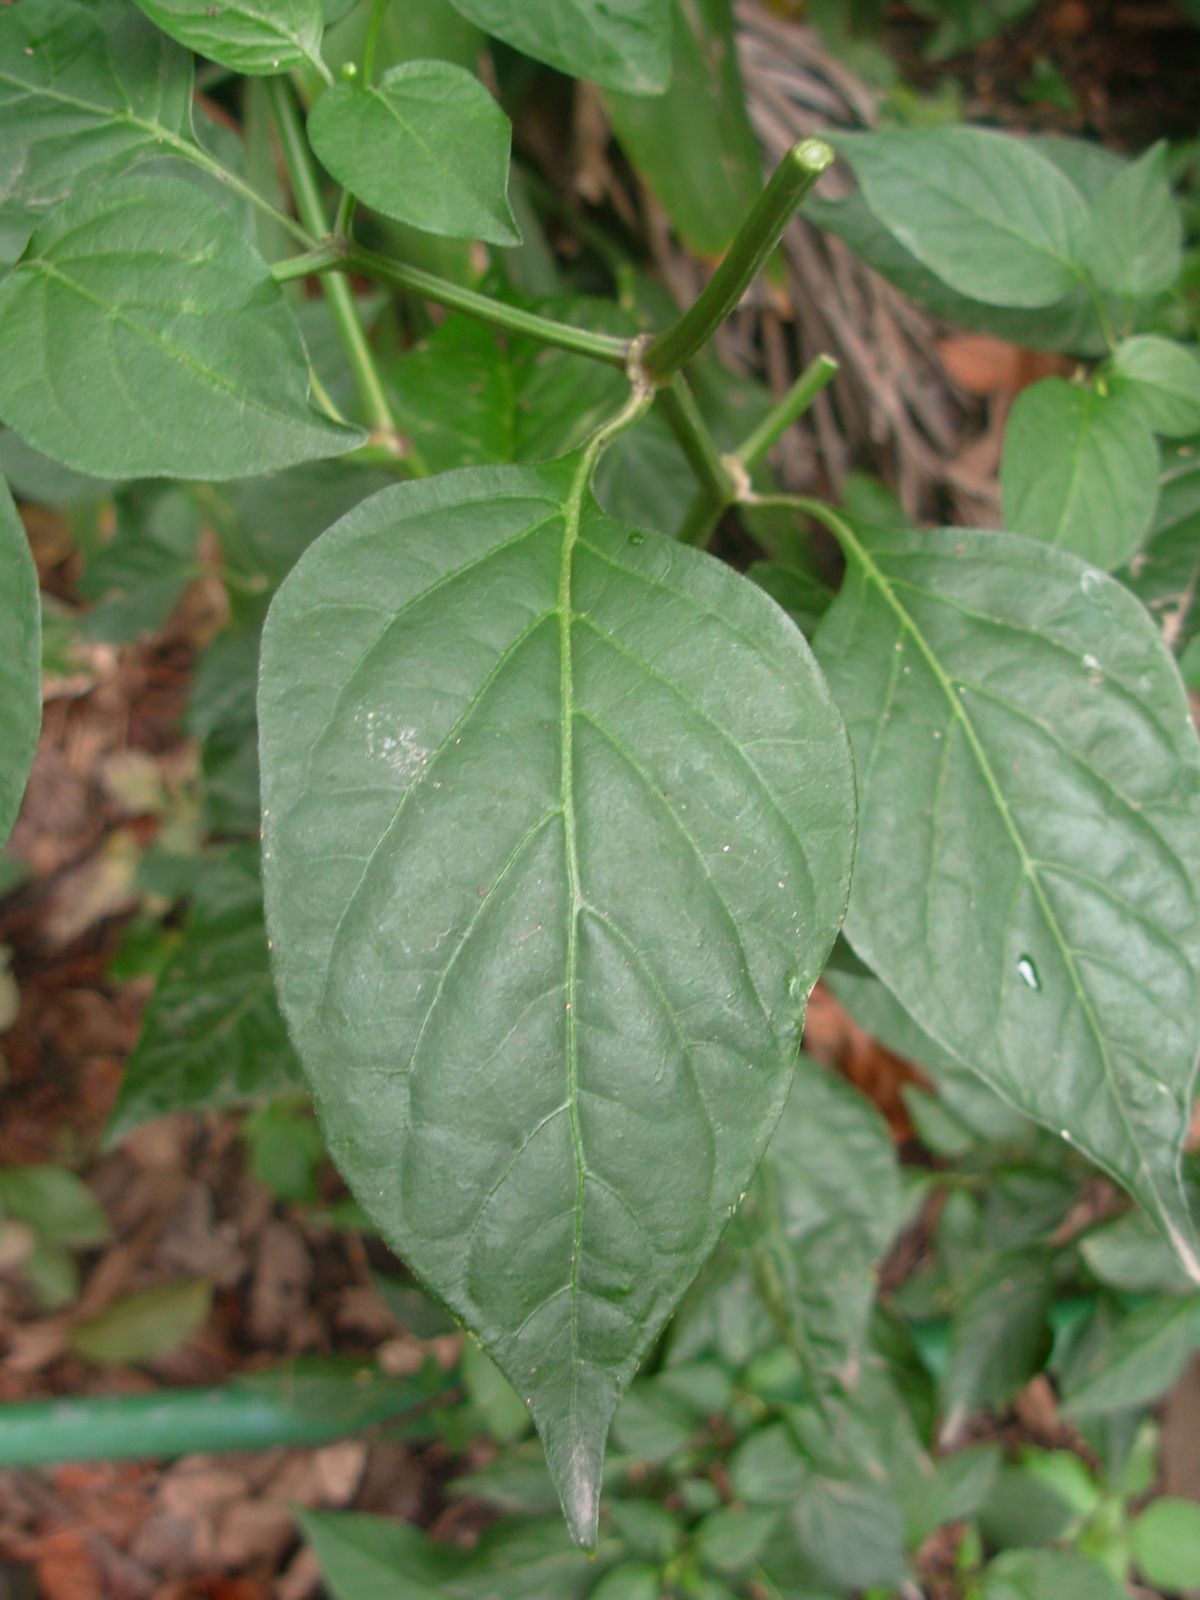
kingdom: Plantae
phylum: Tracheophyta
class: Magnoliopsida
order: Solanales
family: Solanaceae
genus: Capsicum
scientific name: Capsicum annuum
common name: Sweet pepper
